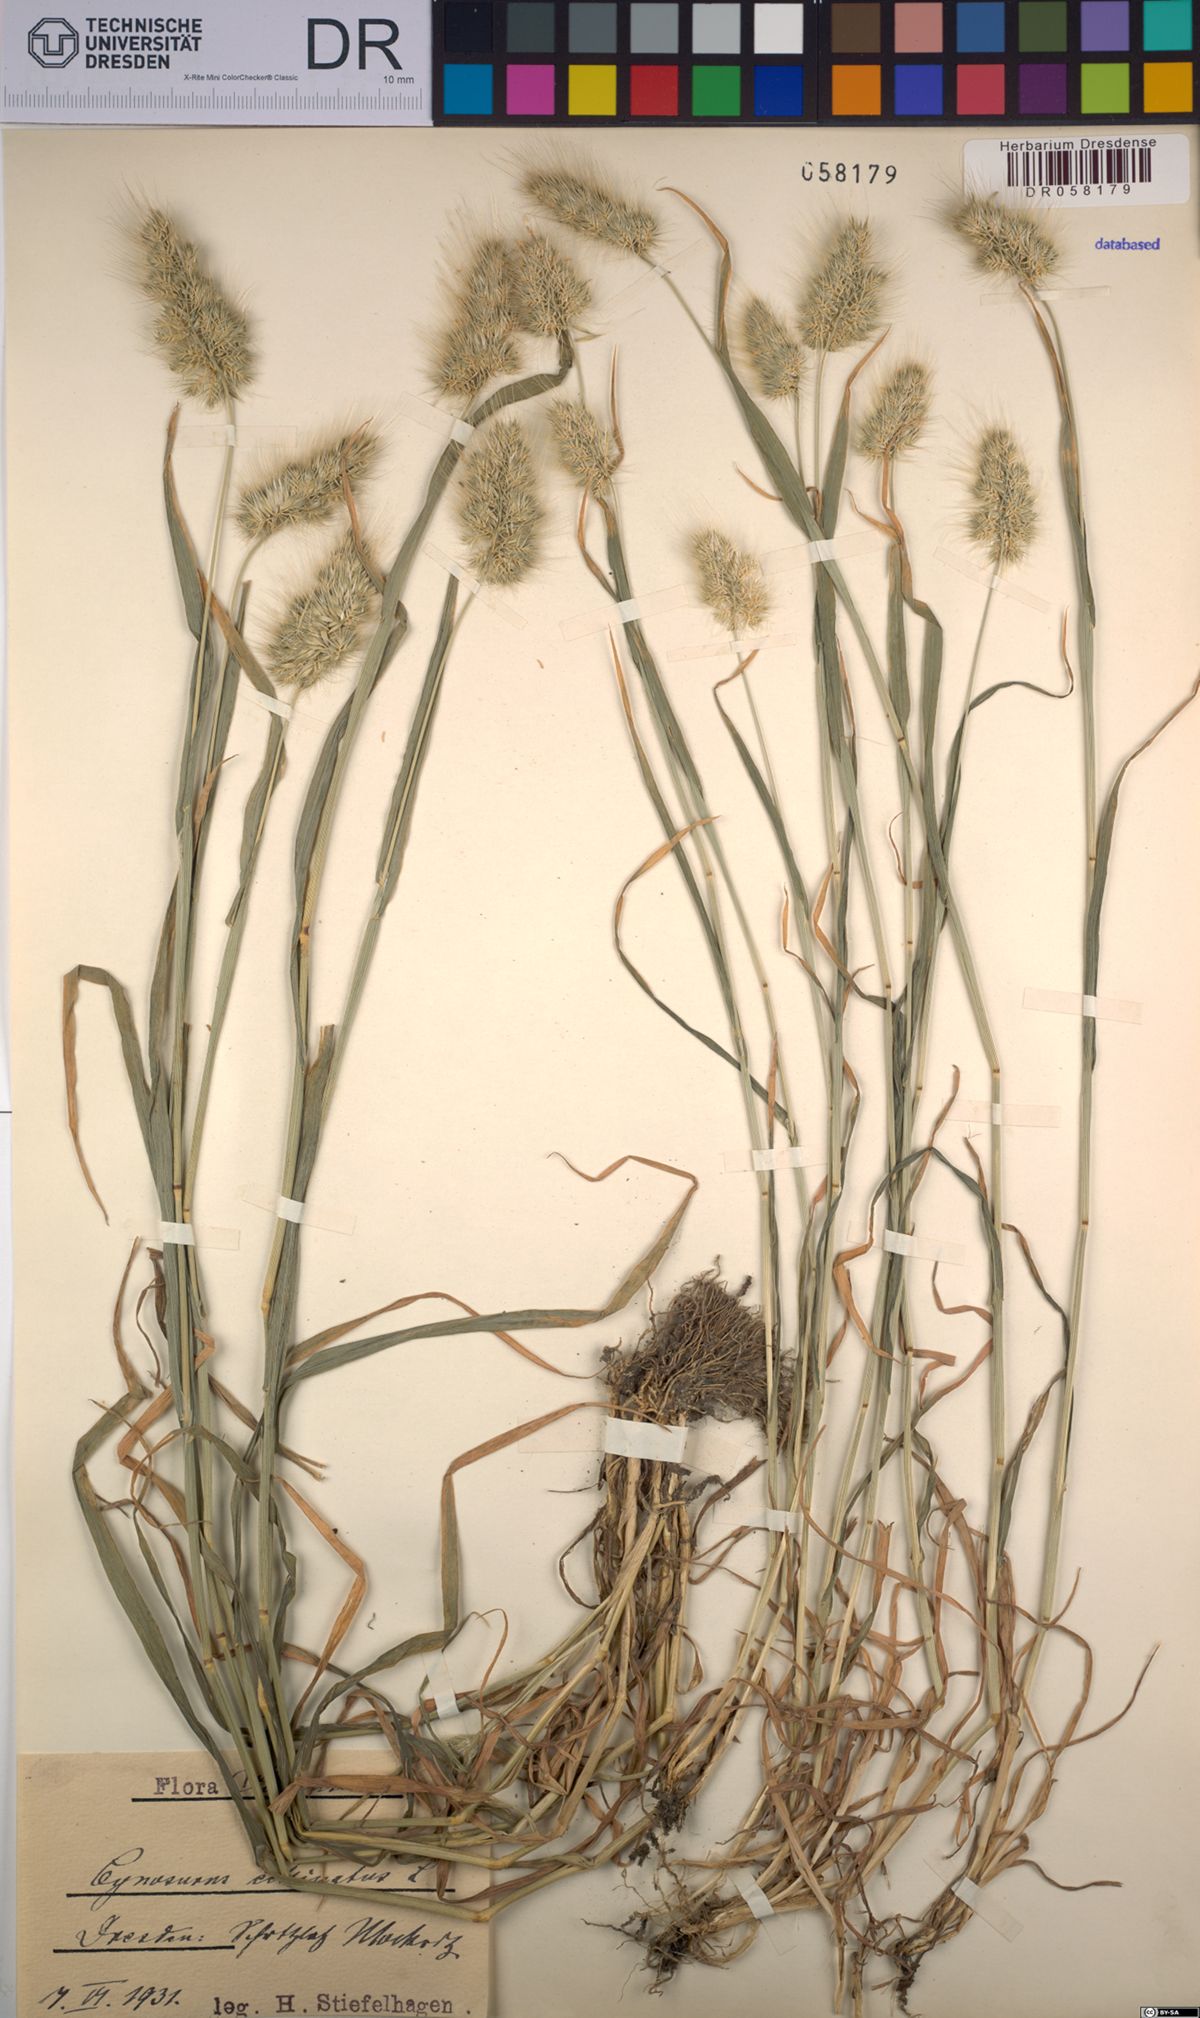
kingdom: Plantae
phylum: Tracheophyta
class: Liliopsida
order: Poales
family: Poaceae
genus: Cynosurus
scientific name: Cynosurus echinatus
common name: Rough dog's-tail
